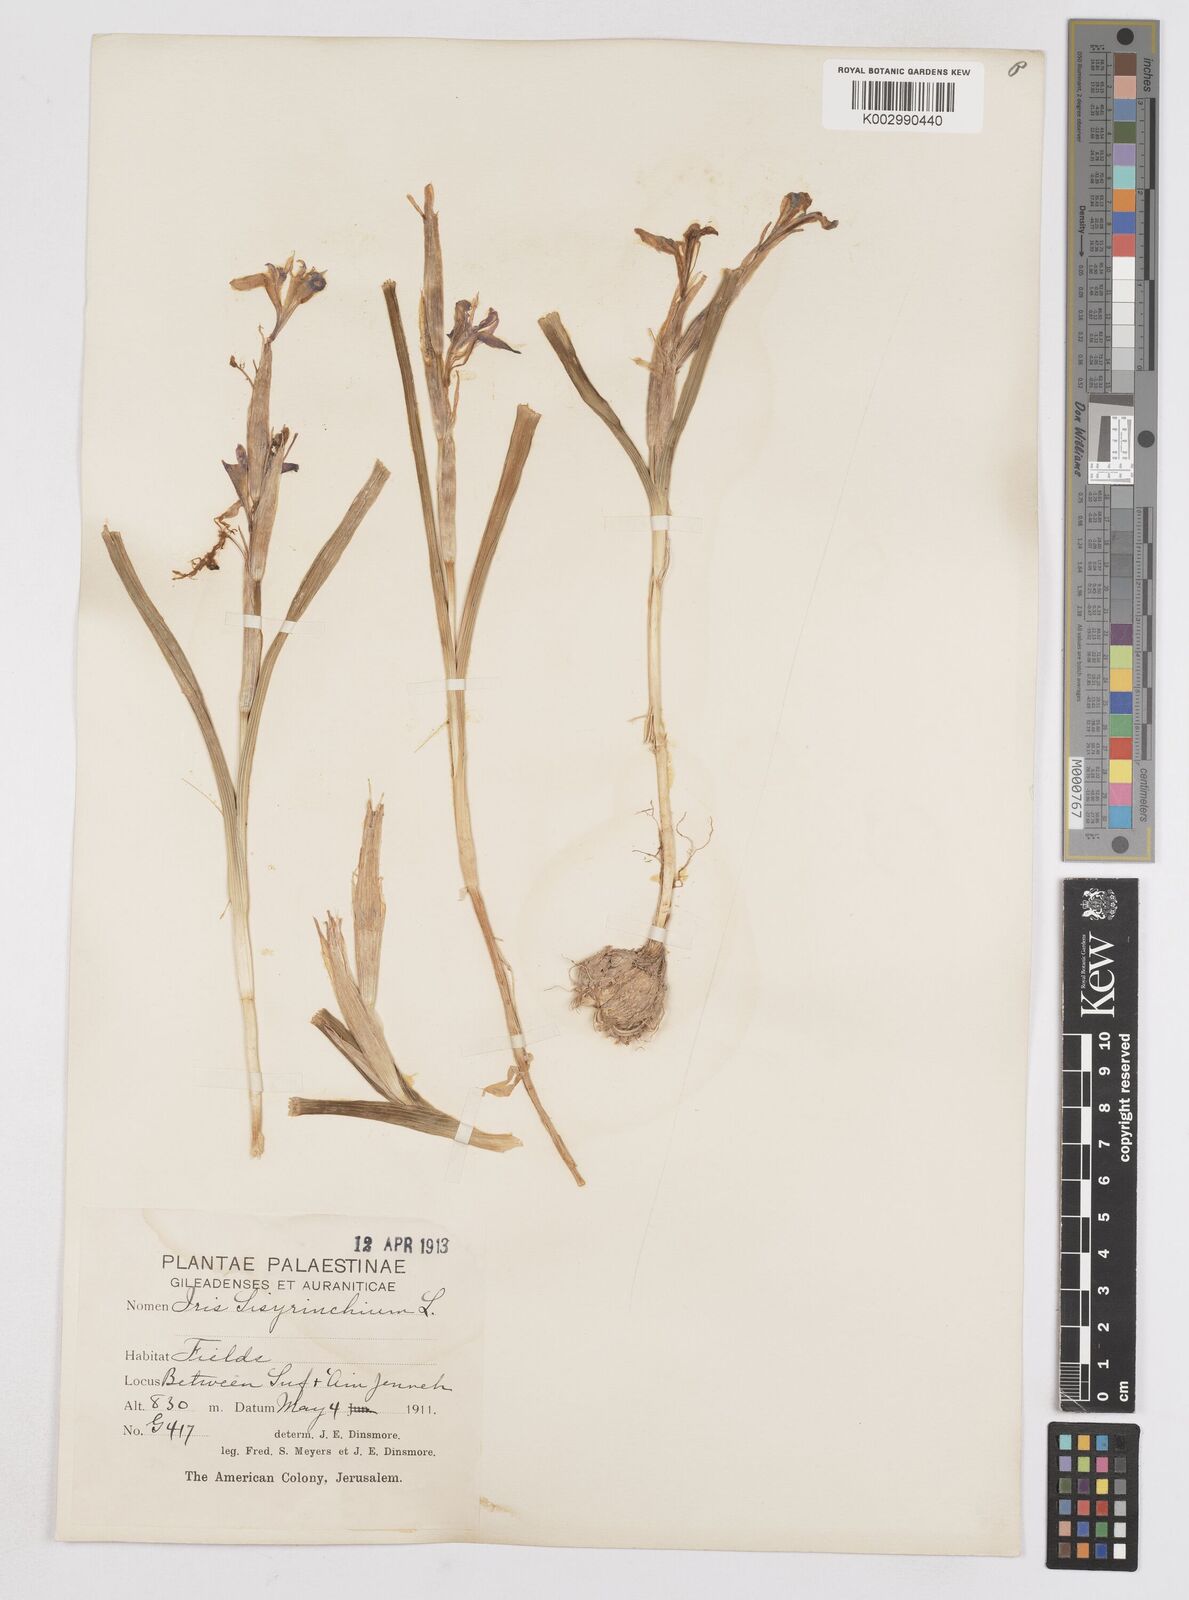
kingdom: Plantae
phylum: Tracheophyta
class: Liliopsida
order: Asparagales
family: Iridaceae
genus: Moraea
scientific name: Moraea sisyrinchium
